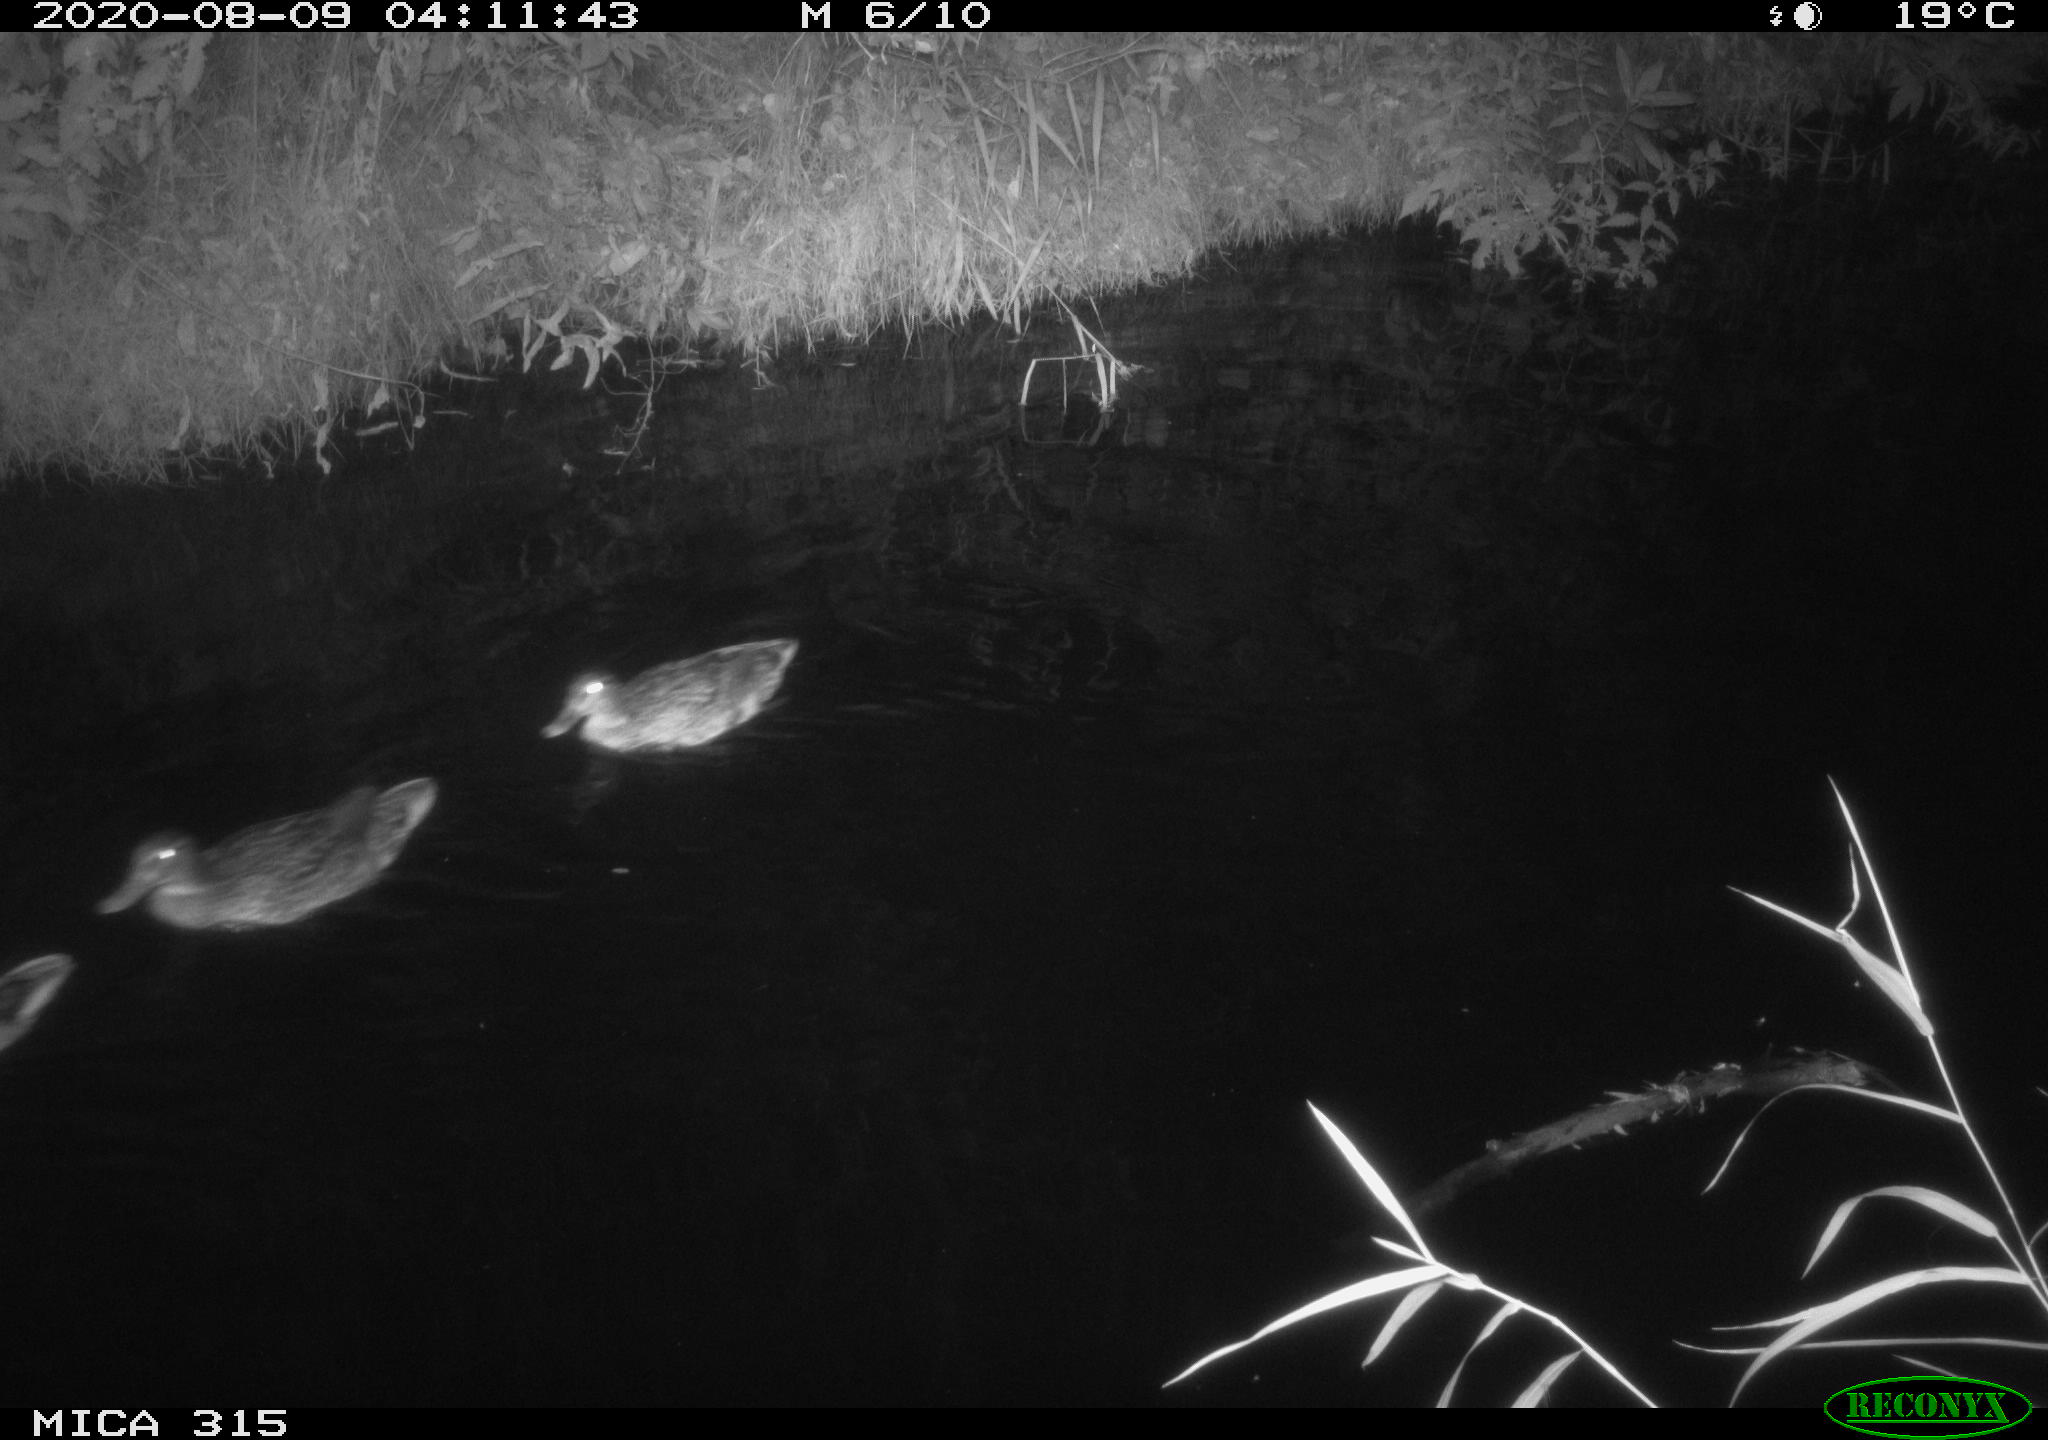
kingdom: Animalia
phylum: Chordata
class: Aves
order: Anseriformes
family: Anatidae
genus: Anas
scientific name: Anas platyrhynchos
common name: Mallard
